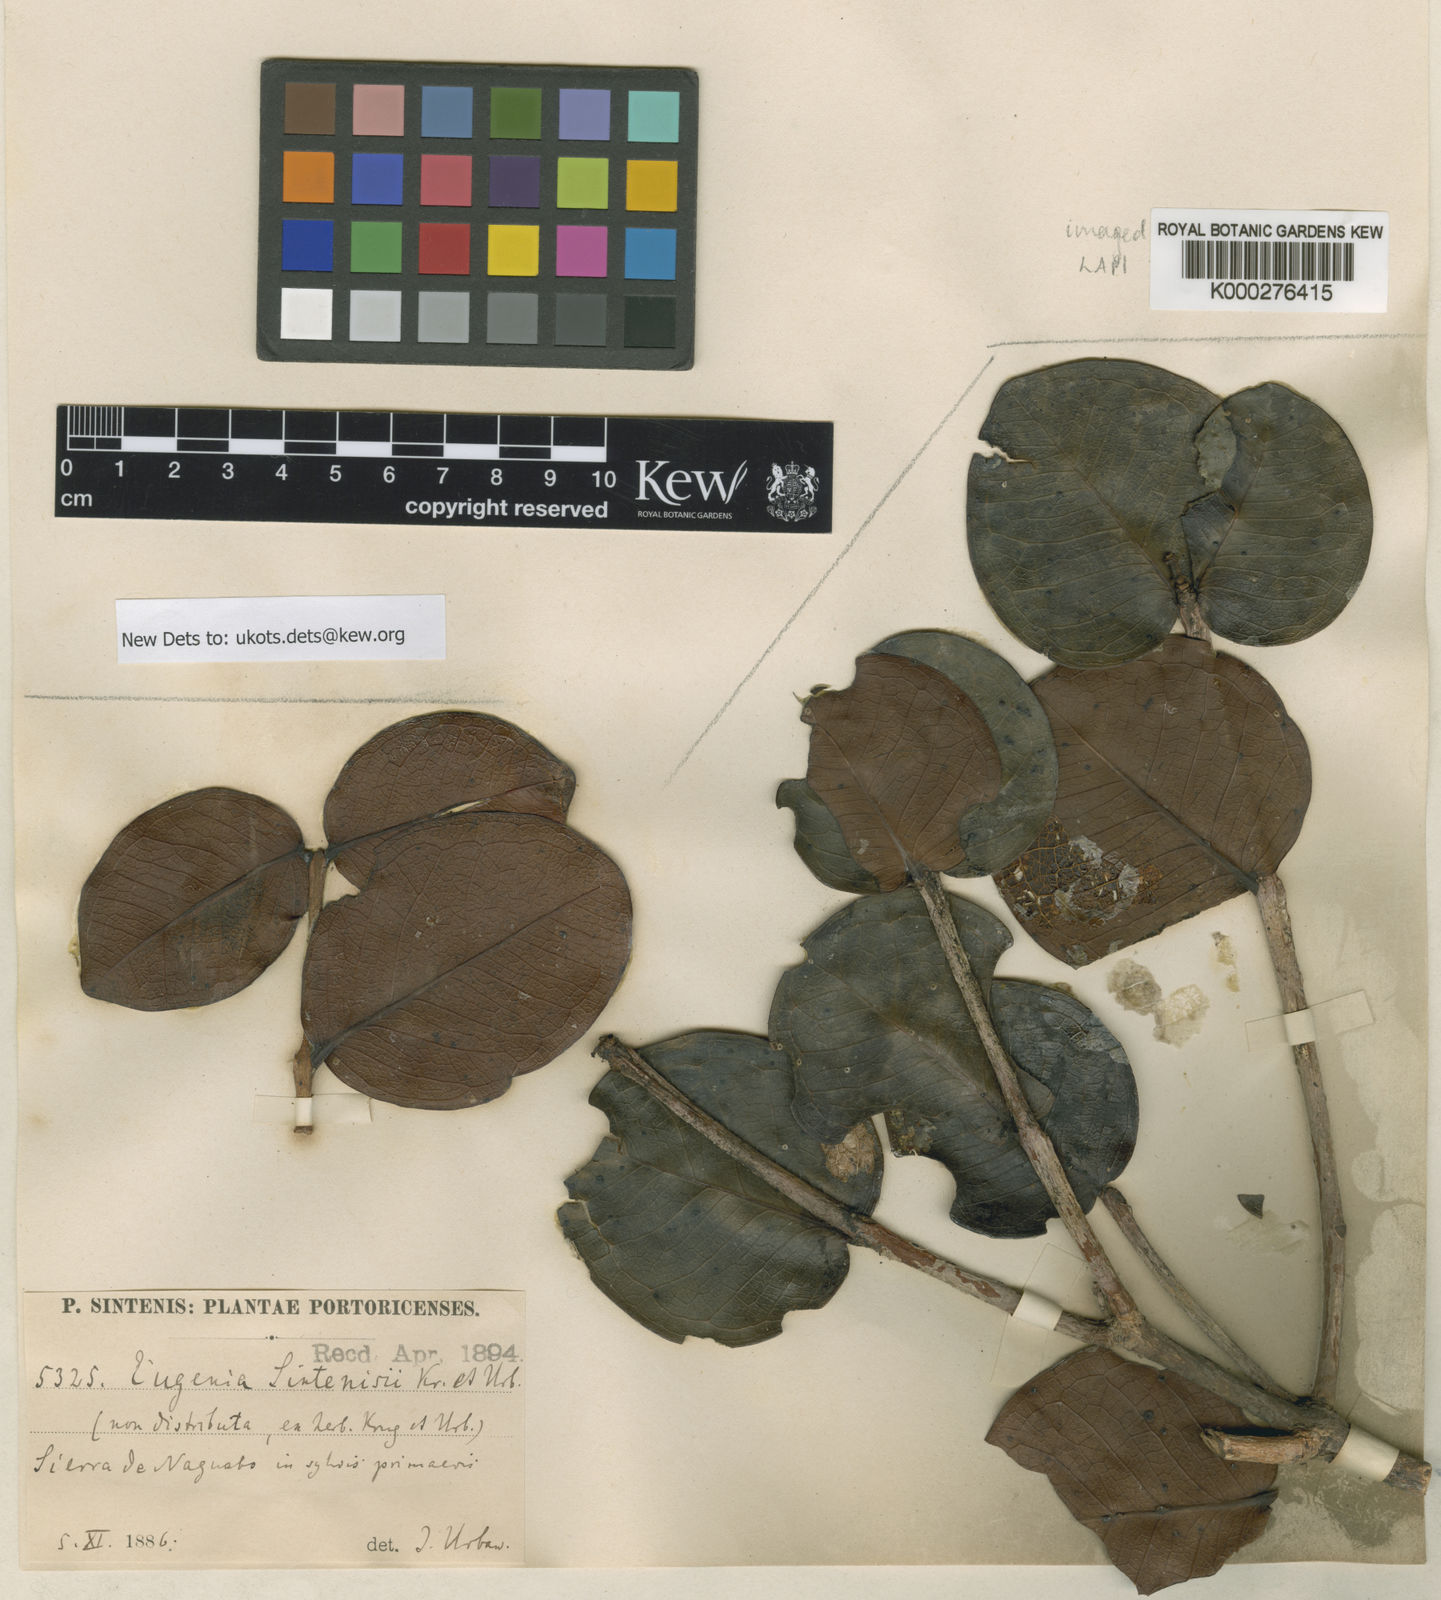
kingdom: Plantae
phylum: Tracheophyta
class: Magnoliopsida
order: Myrtales
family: Myrtaceae
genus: Eugenia
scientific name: Eugenia cordata
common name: Lathberry
